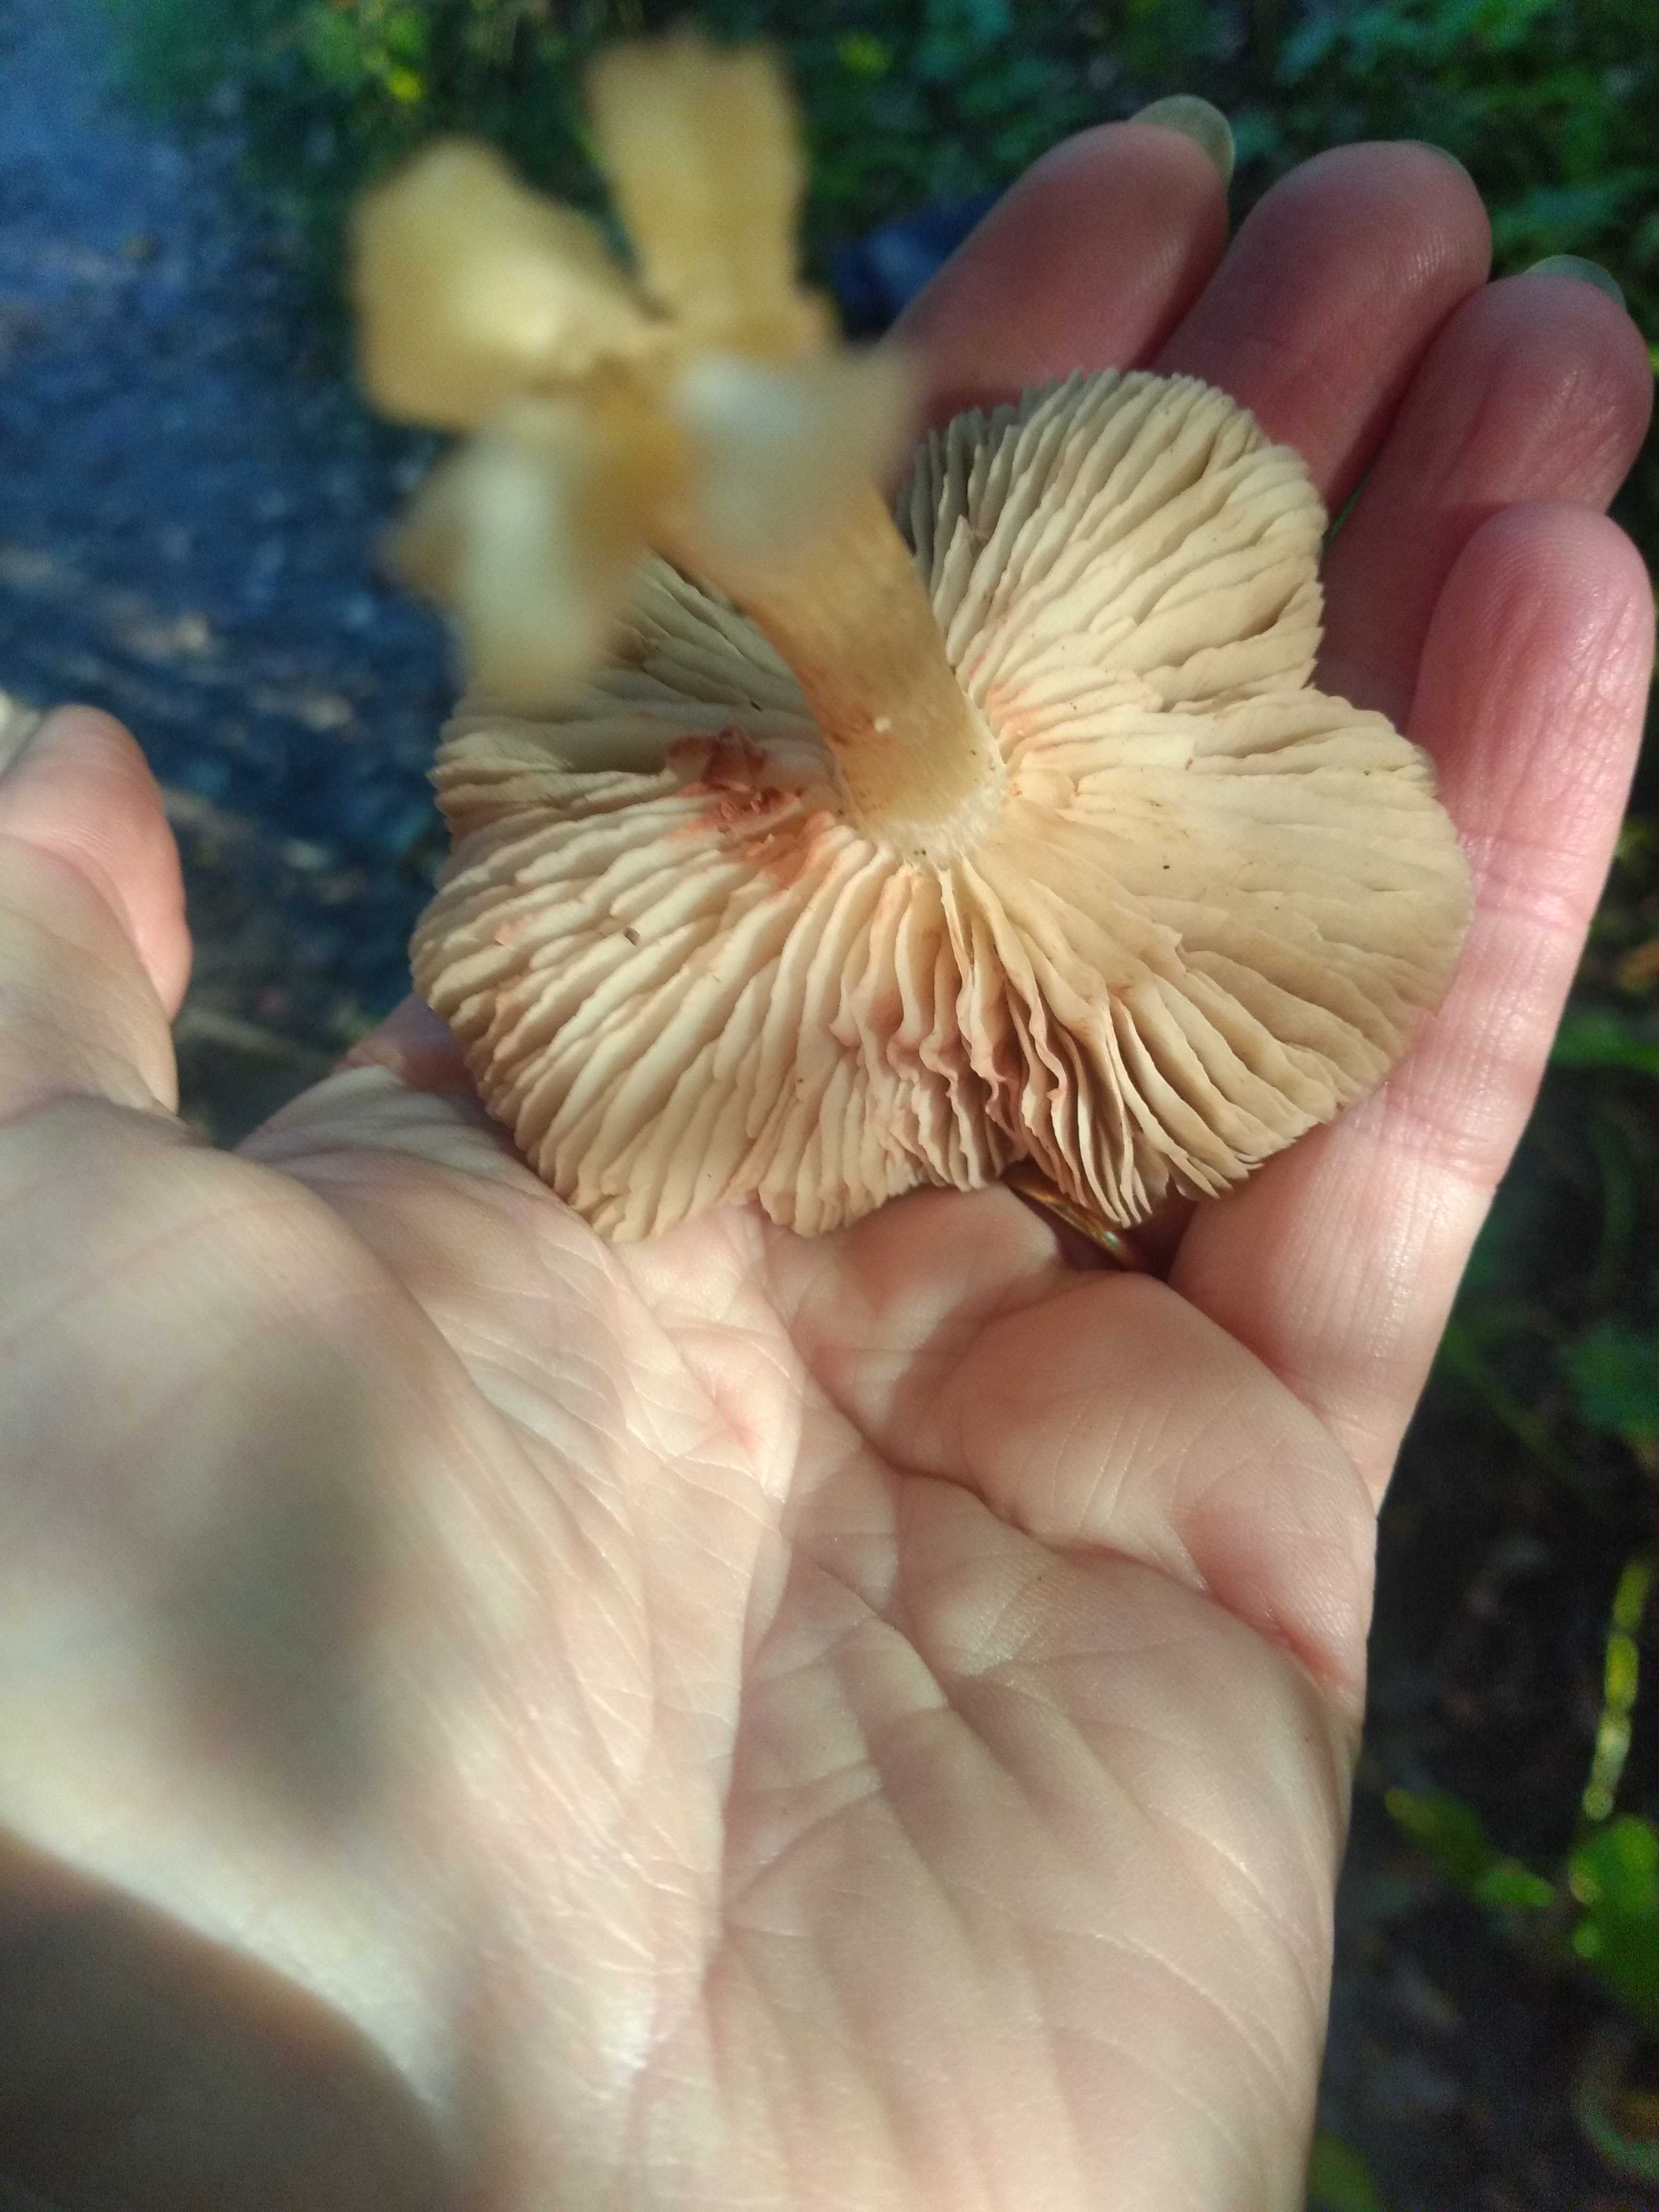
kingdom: Fungi
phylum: Basidiomycota
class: Agaricomycetes
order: Agaricales
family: Entolomataceae
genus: Entoloma
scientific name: Entoloma
